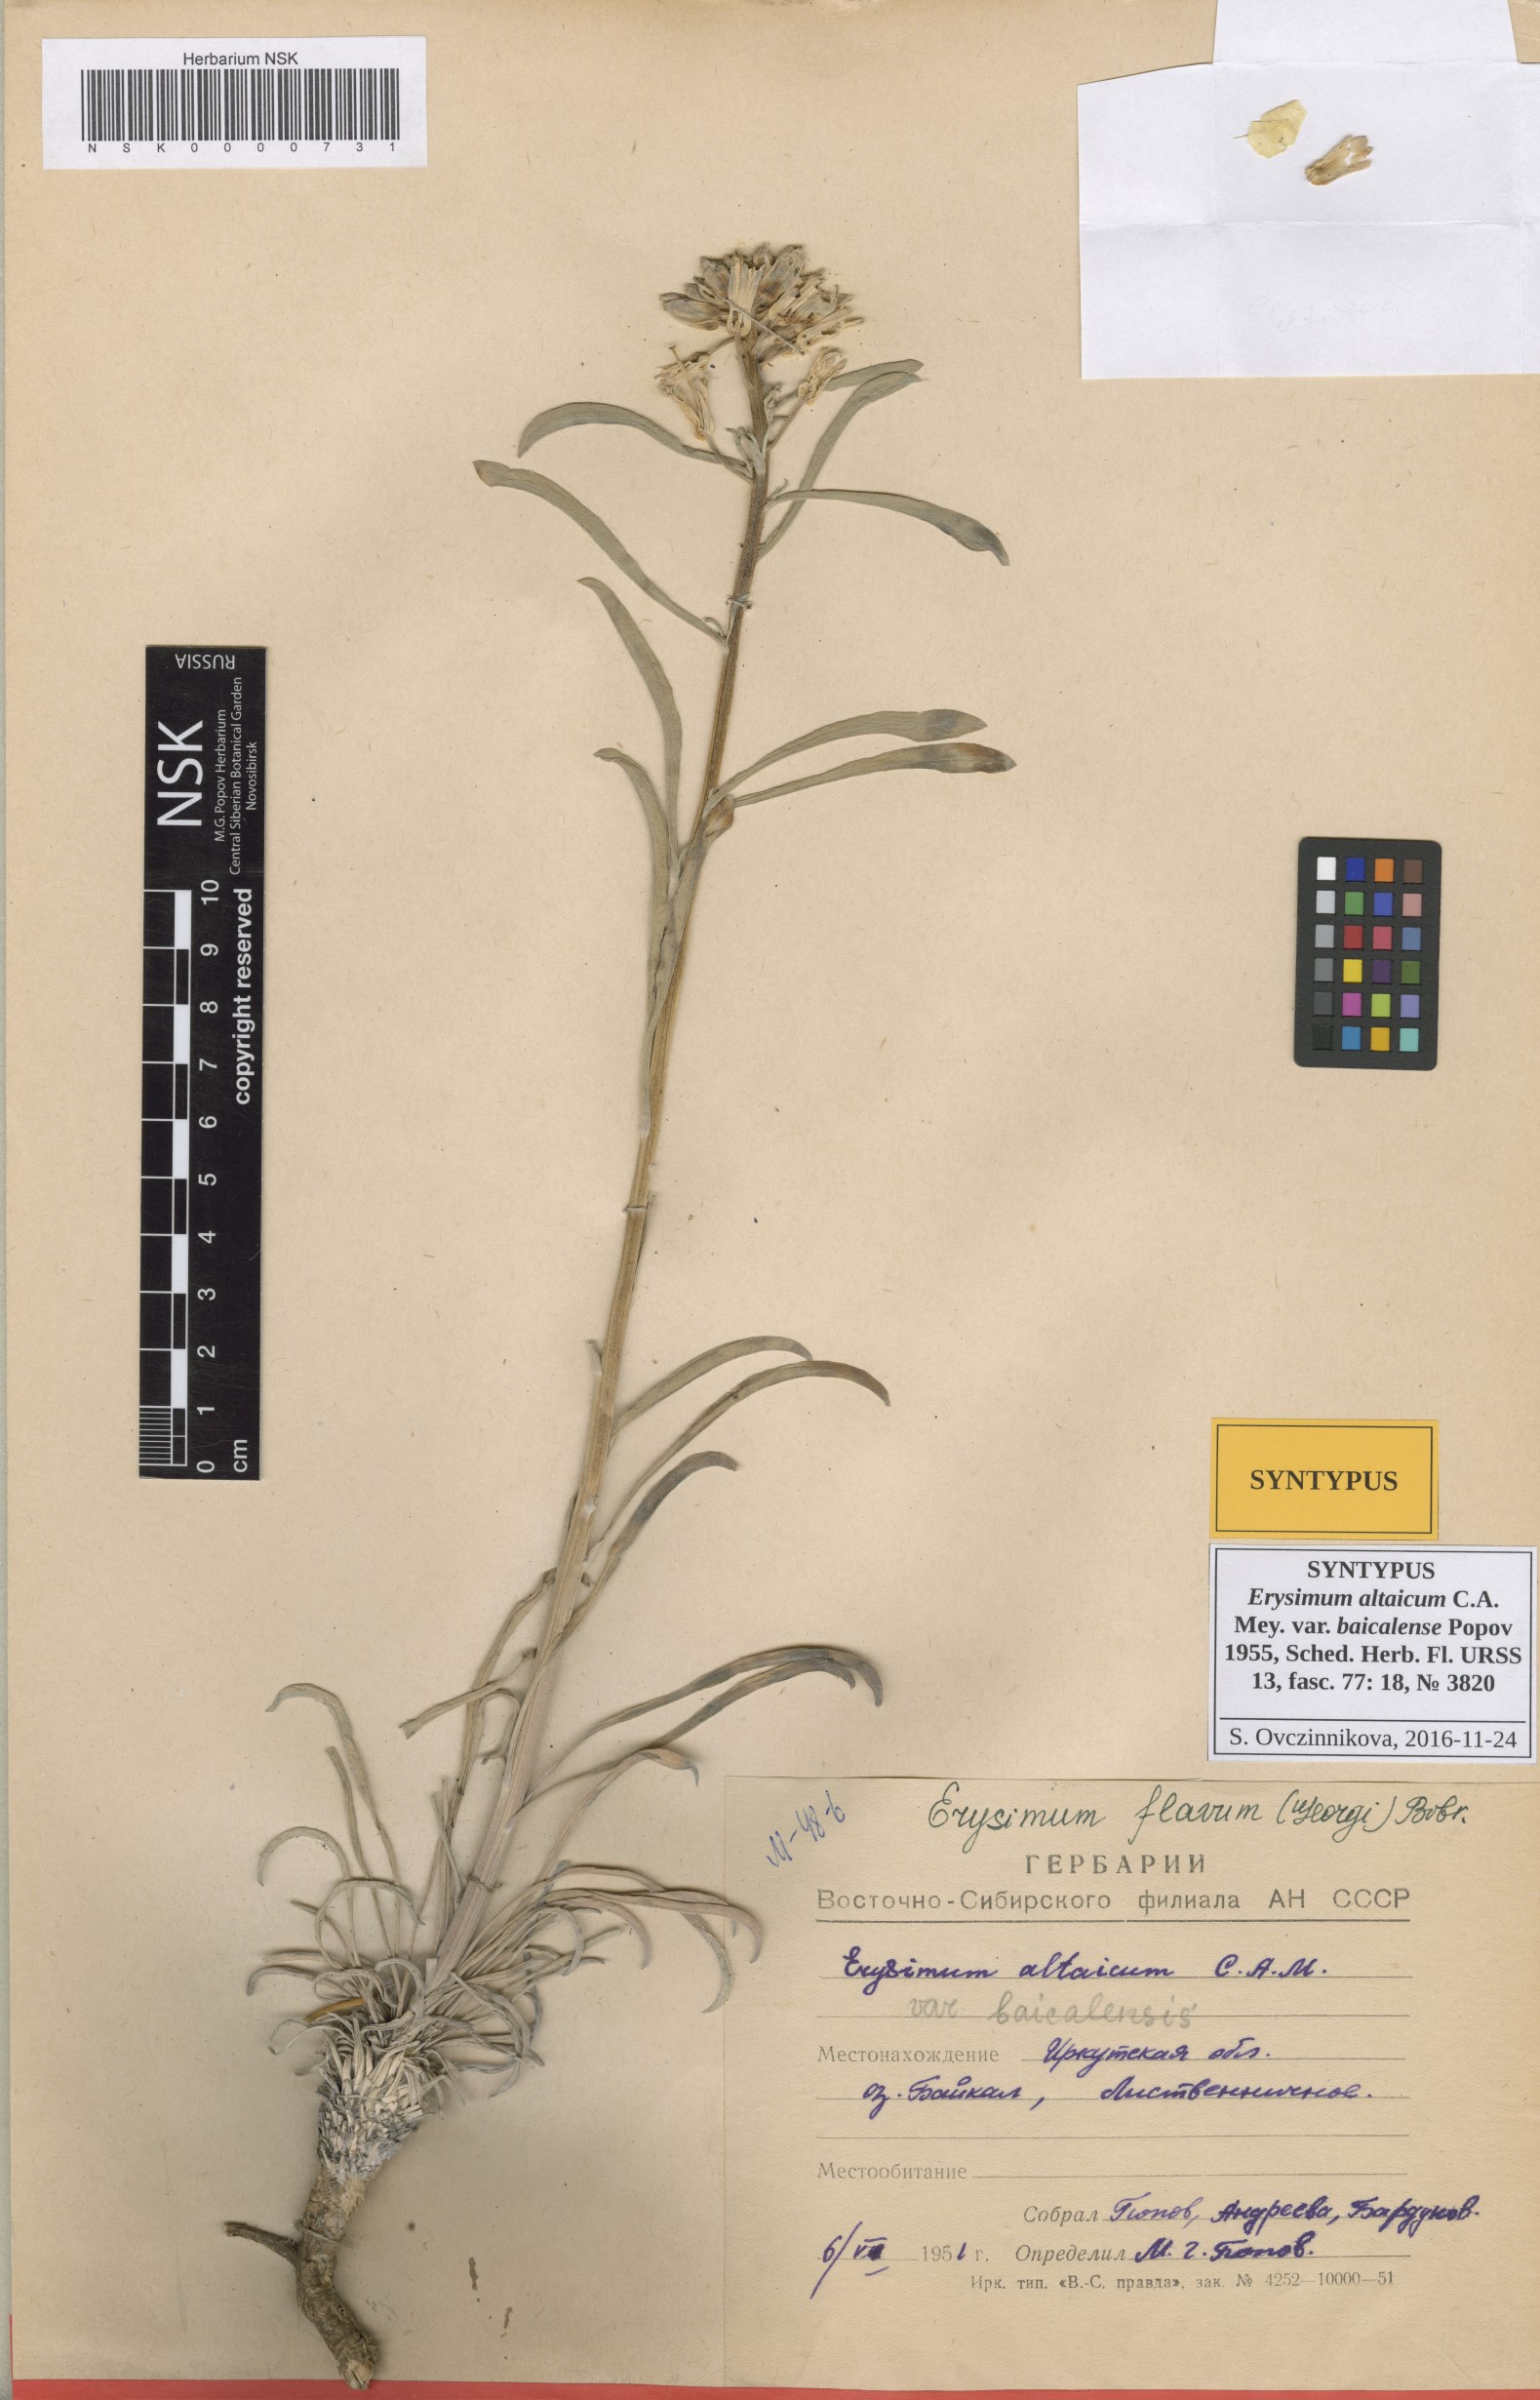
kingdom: Plantae
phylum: Tracheophyta
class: Magnoliopsida
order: Brassicales
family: Brassicaceae
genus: Erysimum
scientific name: Erysimum flavum
